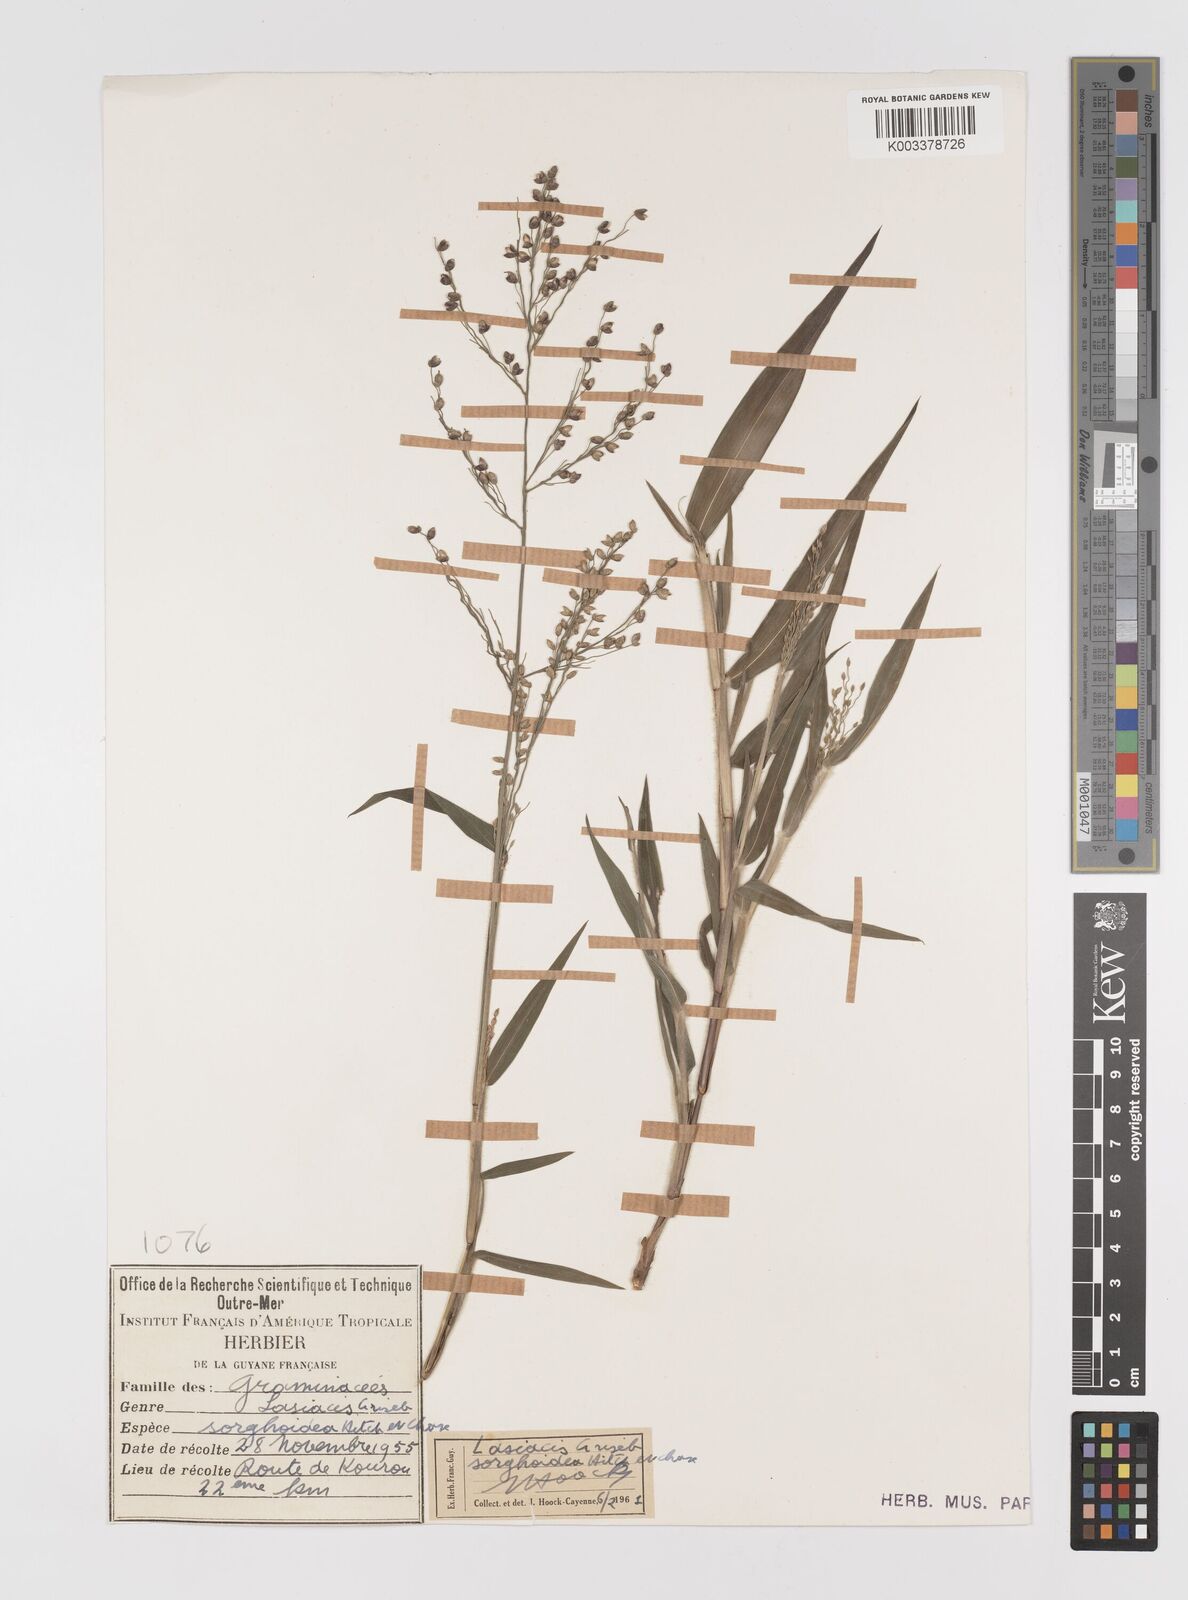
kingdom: Plantae
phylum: Tracheophyta
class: Liliopsida
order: Poales
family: Poaceae
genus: Lasiacis
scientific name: Lasiacis maculata
